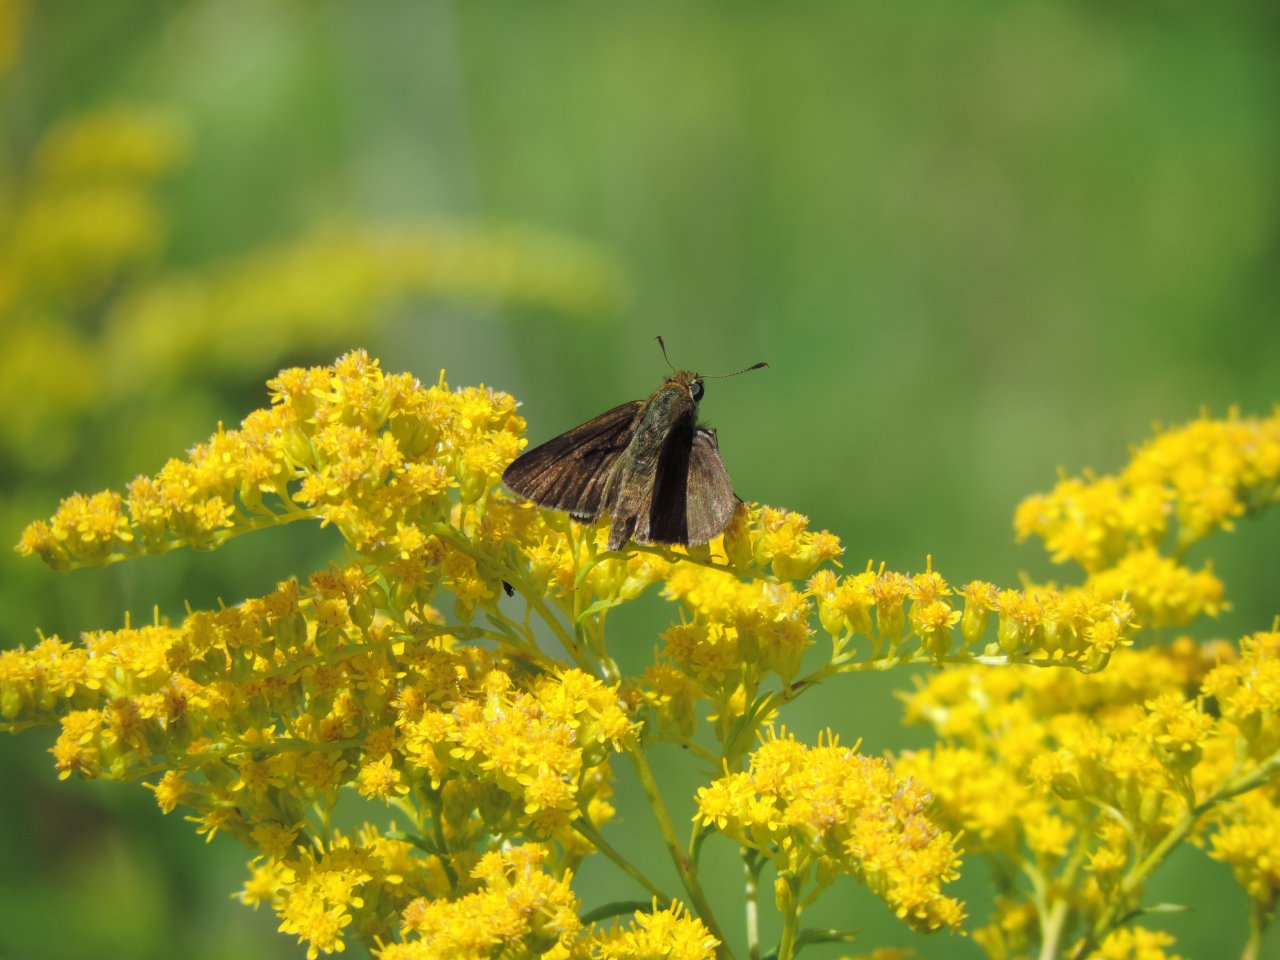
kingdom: Animalia
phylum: Arthropoda
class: Insecta
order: Lepidoptera
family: Hesperiidae
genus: Euphyes
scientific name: Euphyes vestris
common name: Dun Skipper
